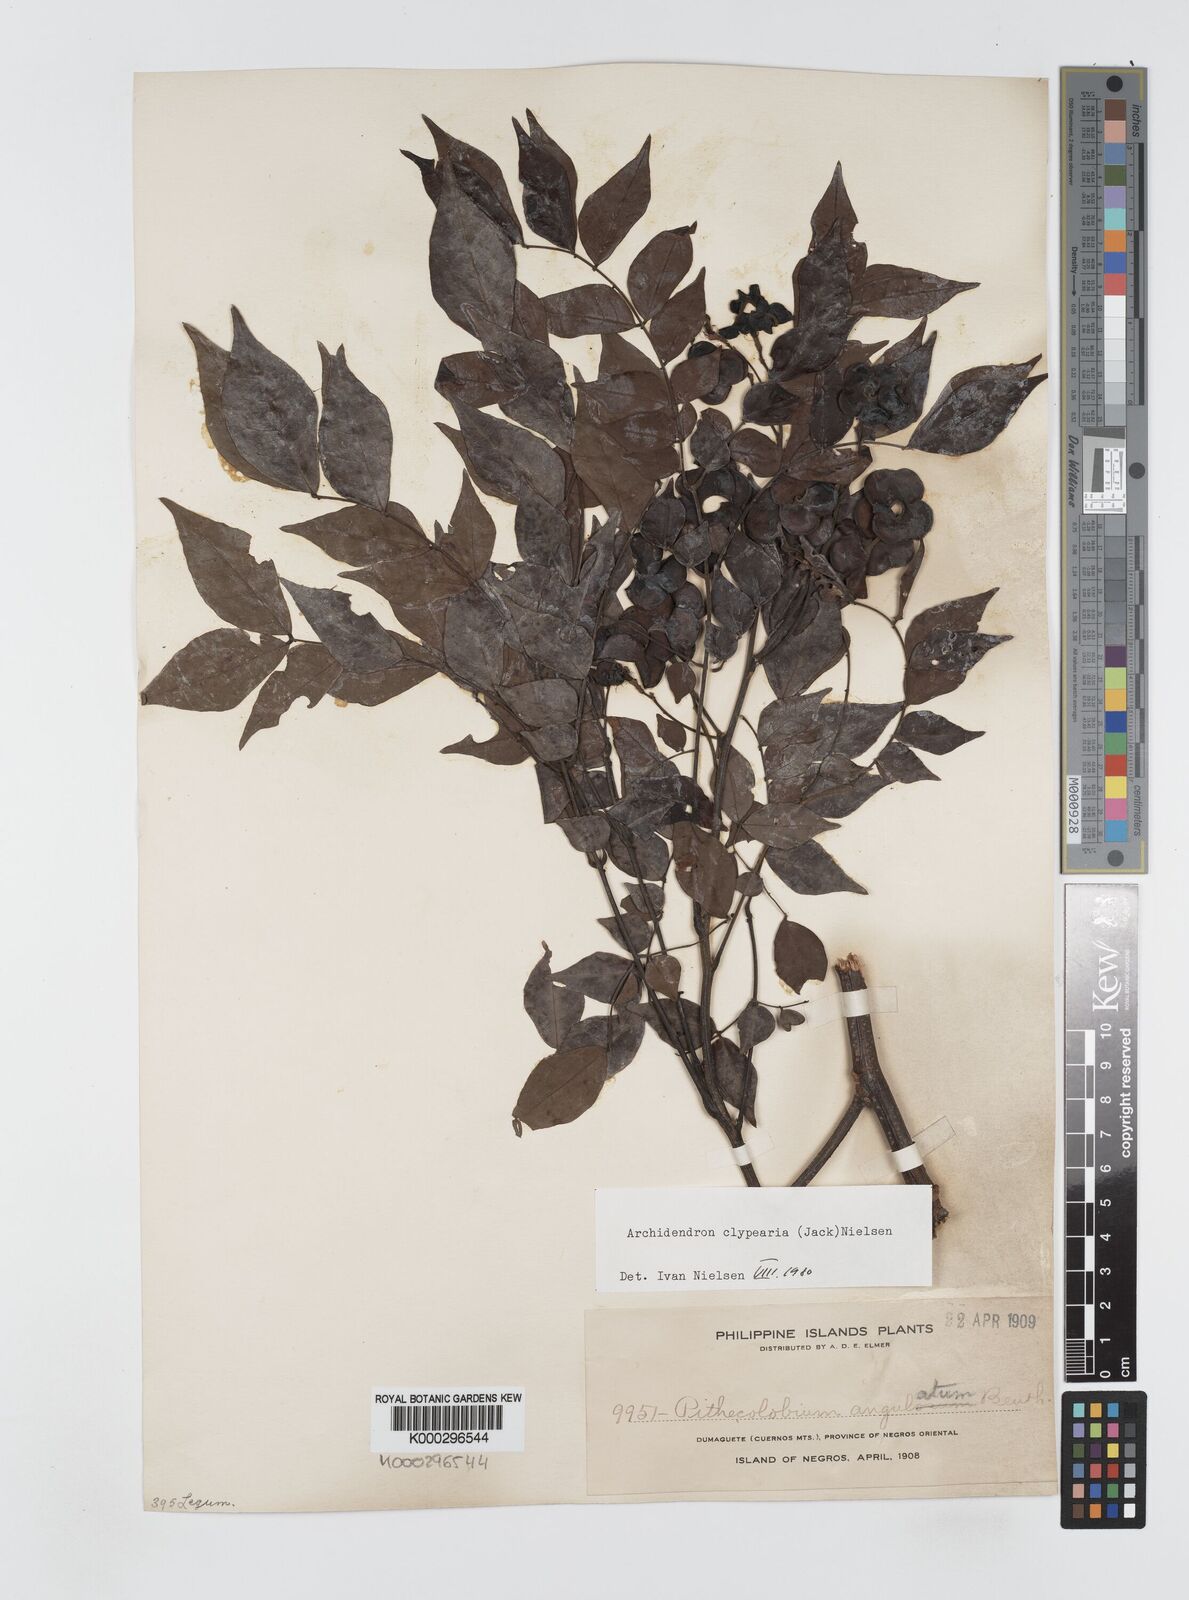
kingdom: Plantae
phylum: Tracheophyta
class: Magnoliopsida
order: Fabales
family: Fabaceae
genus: Archidendron
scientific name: Archidendron clypearia
